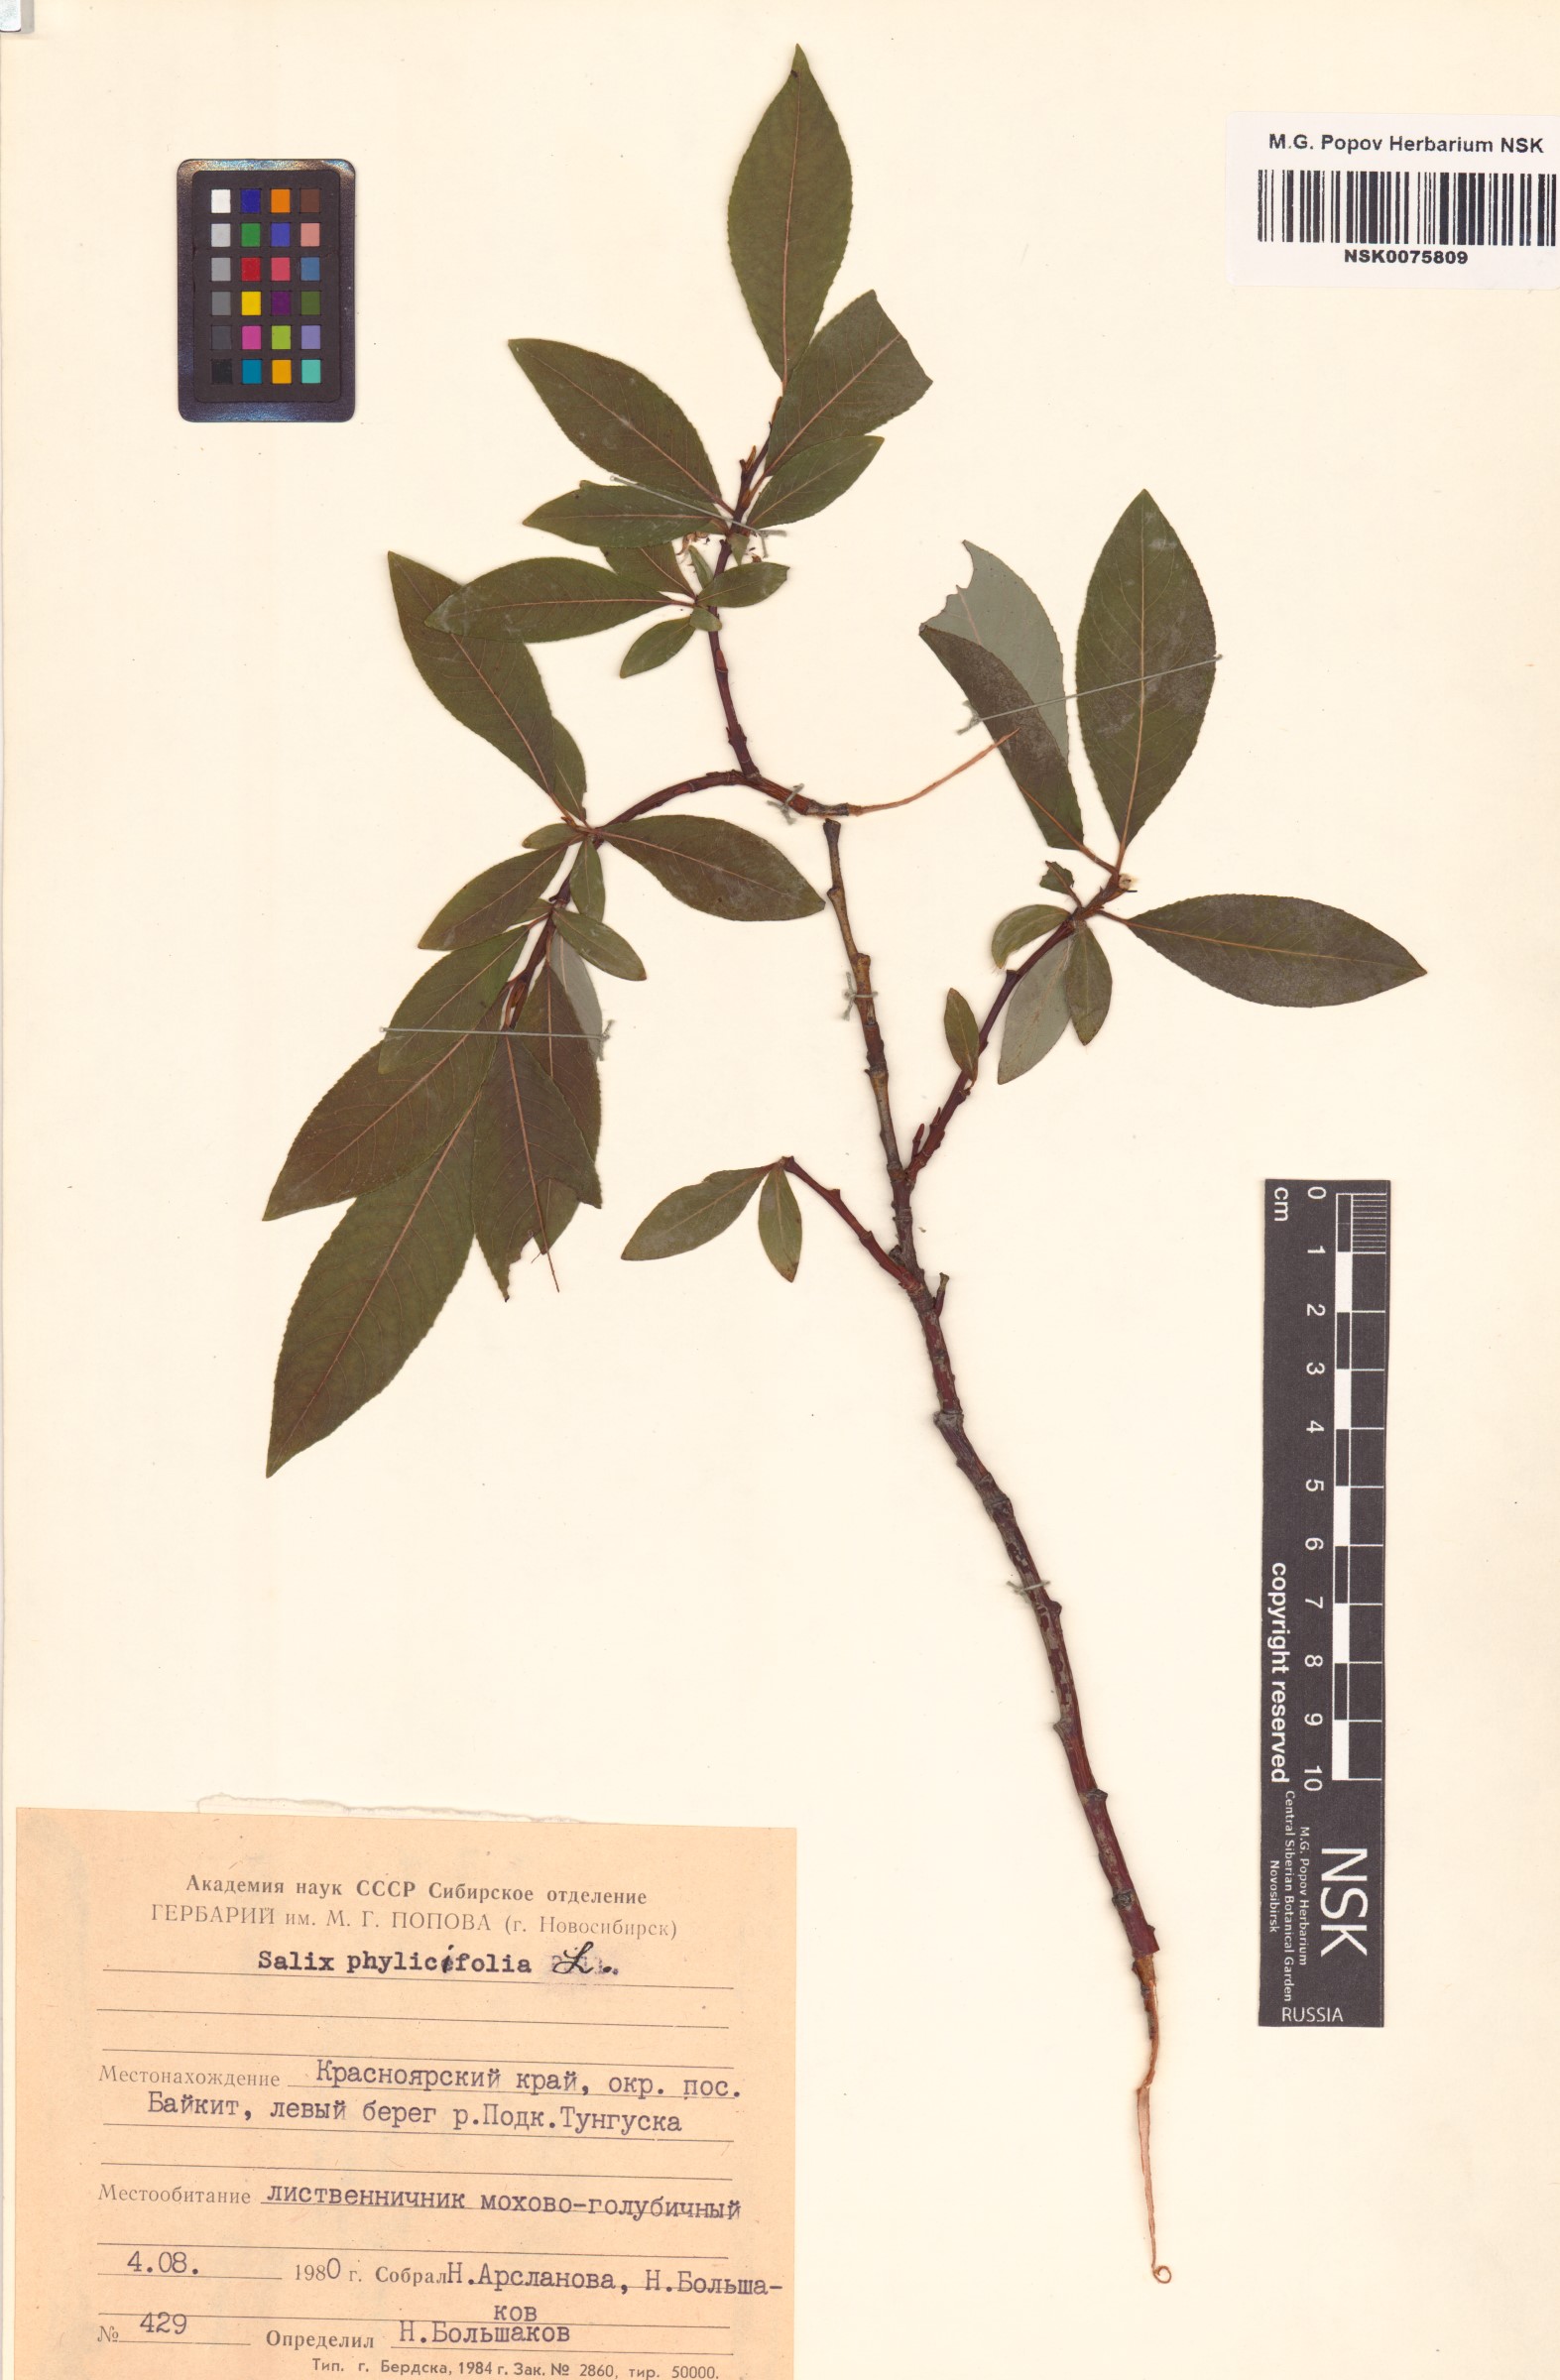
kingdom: Plantae
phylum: Tracheophyta
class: Magnoliopsida
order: Malpighiales
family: Salicaceae
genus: Salix
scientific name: Salix phylicifolia
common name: Tea-leaved willow
